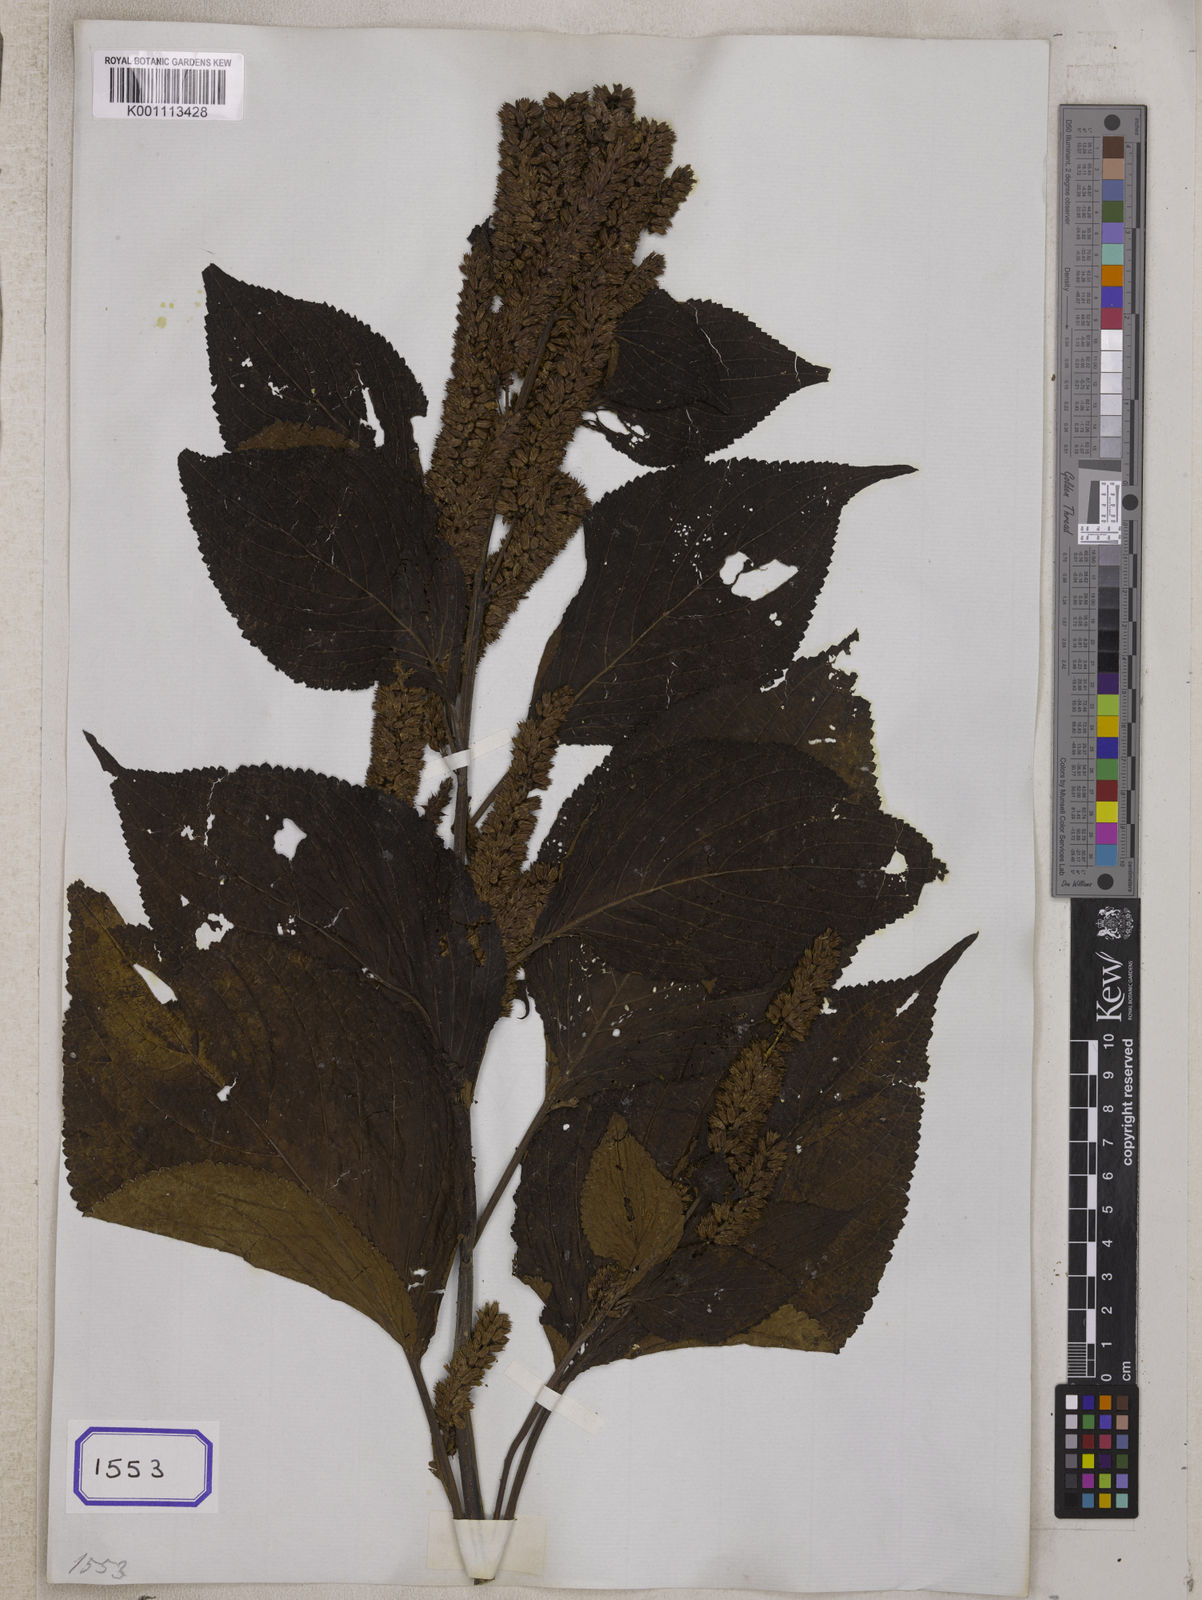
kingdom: Plantae
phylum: Tracheophyta
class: Magnoliopsida
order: Lamiales
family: Lamiaceae
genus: Elsholtzia
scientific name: Elsholtzia flava
